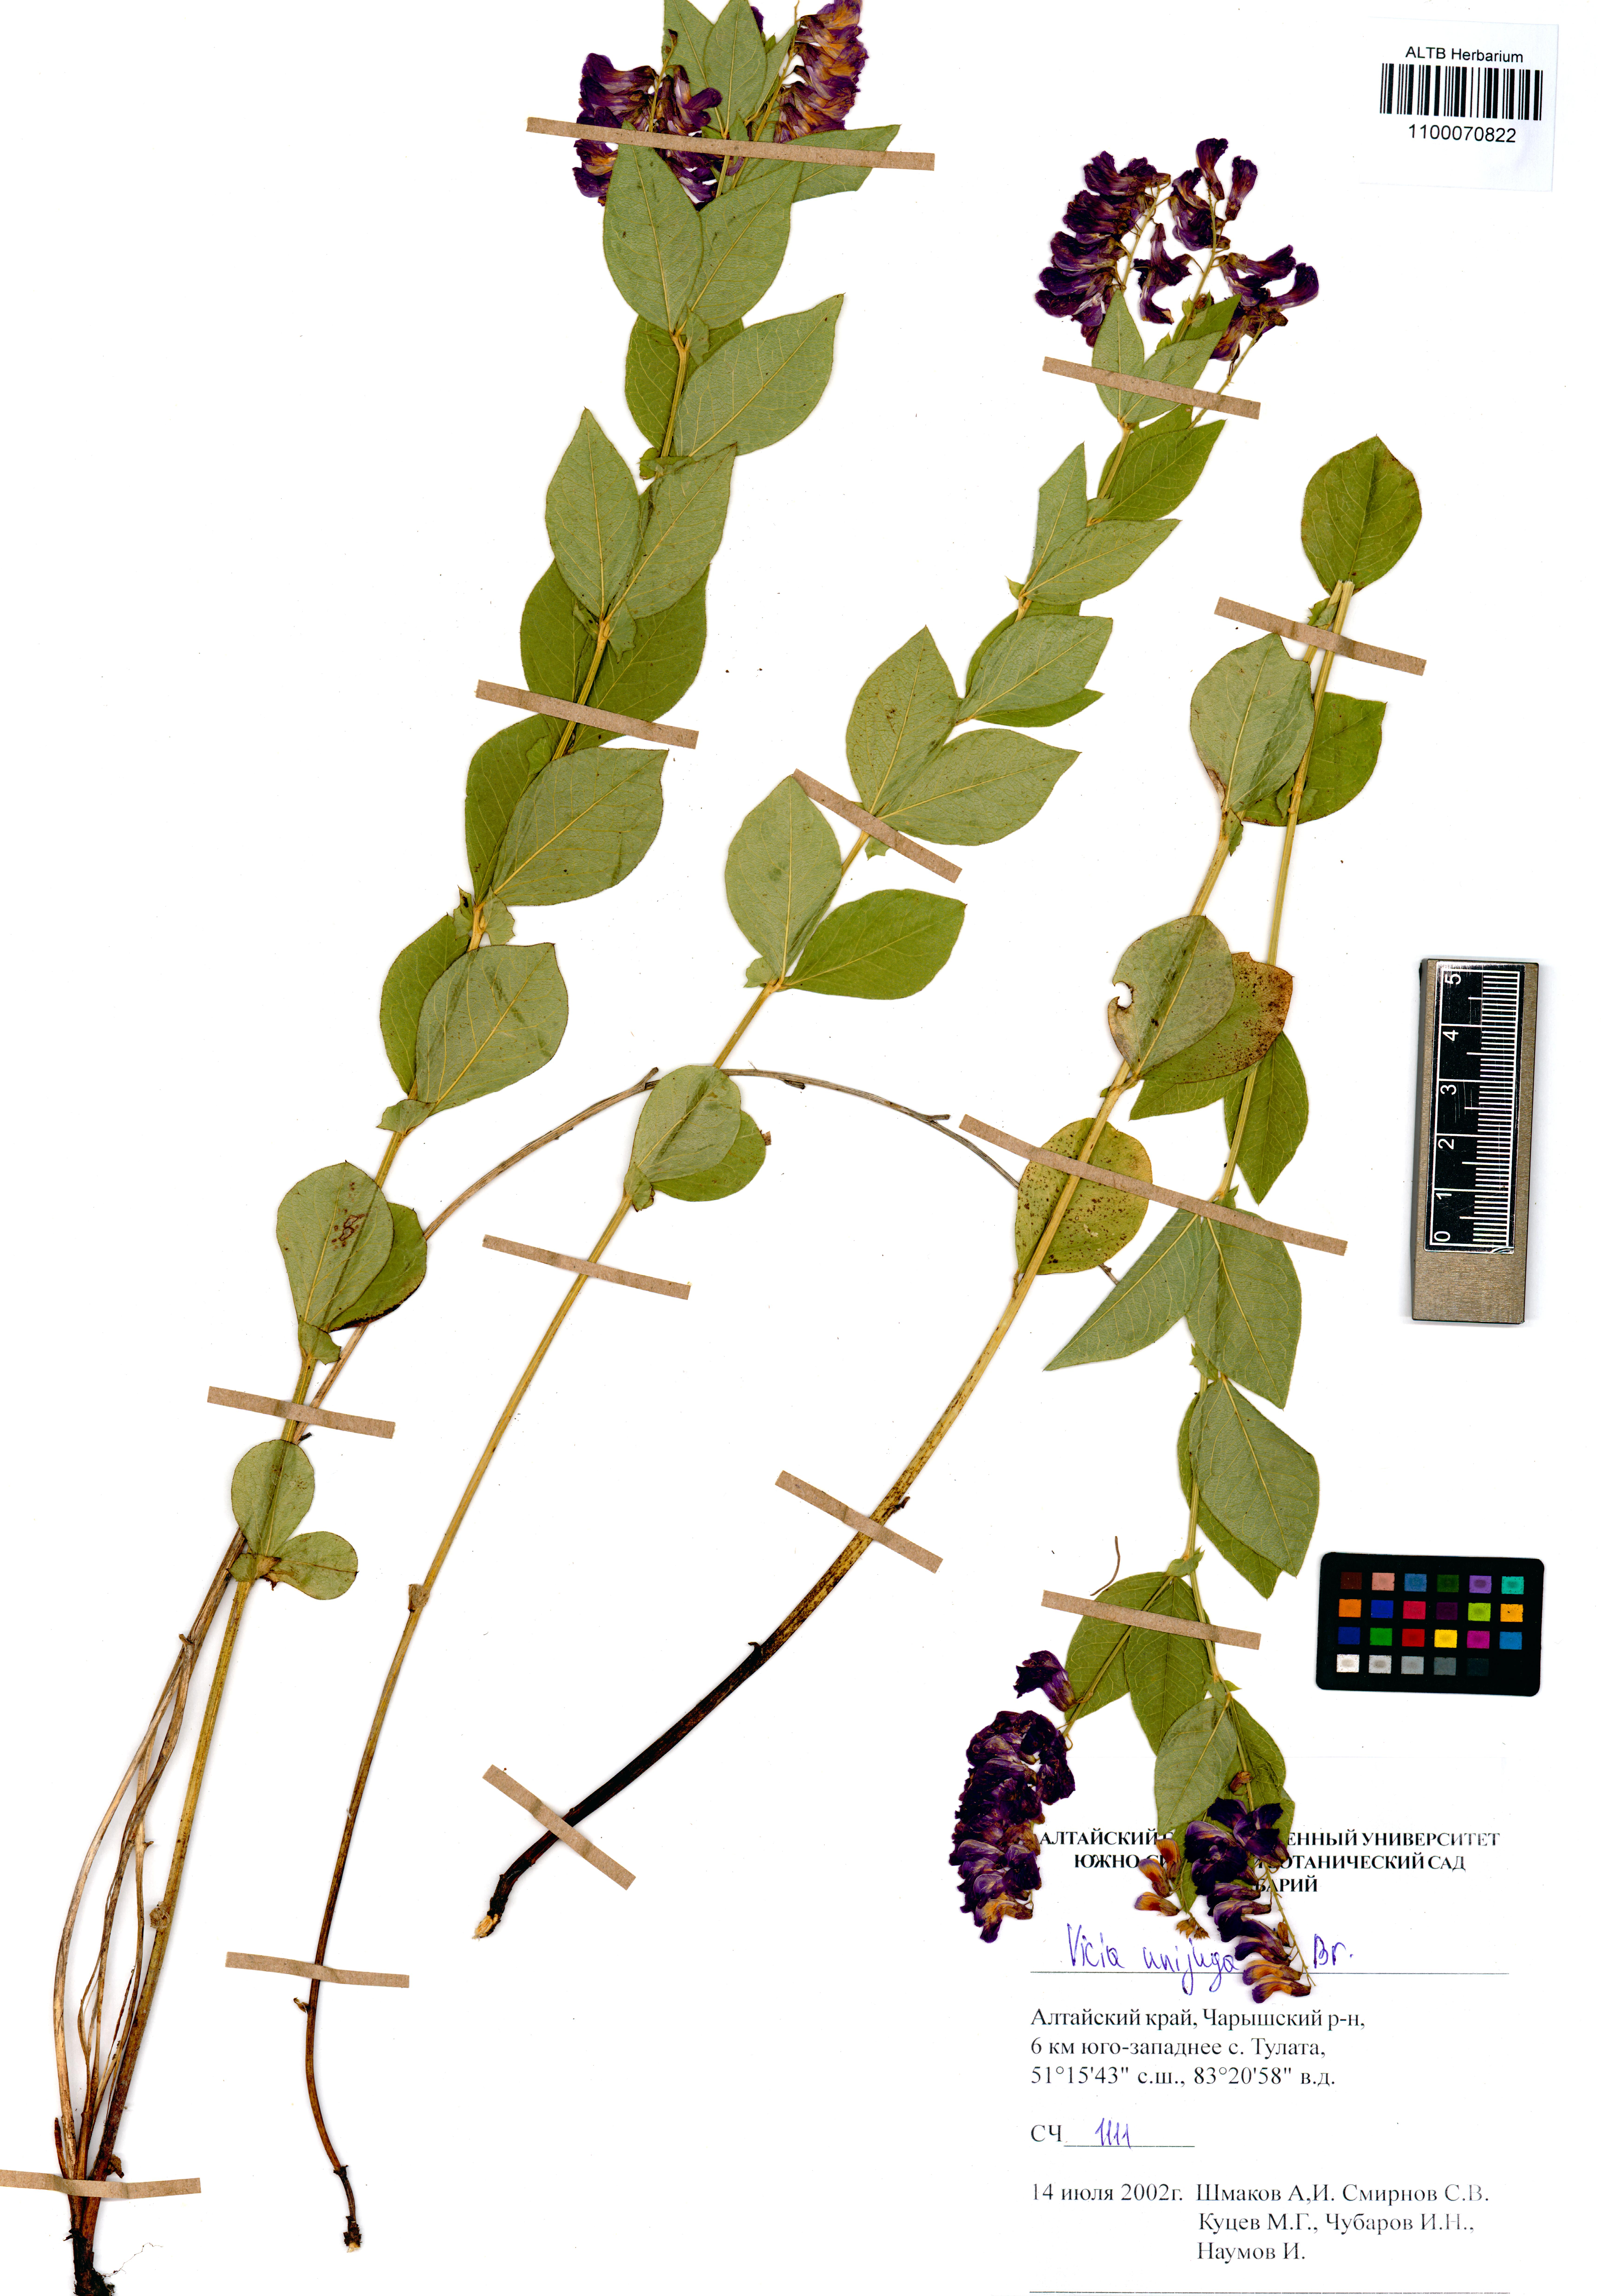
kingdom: Plantae
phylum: Tracheophyta
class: Magnoliopsida
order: Fabales
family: Fabaceae
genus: Vicia
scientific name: Vicia unijuga
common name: Two-leaf vetch
